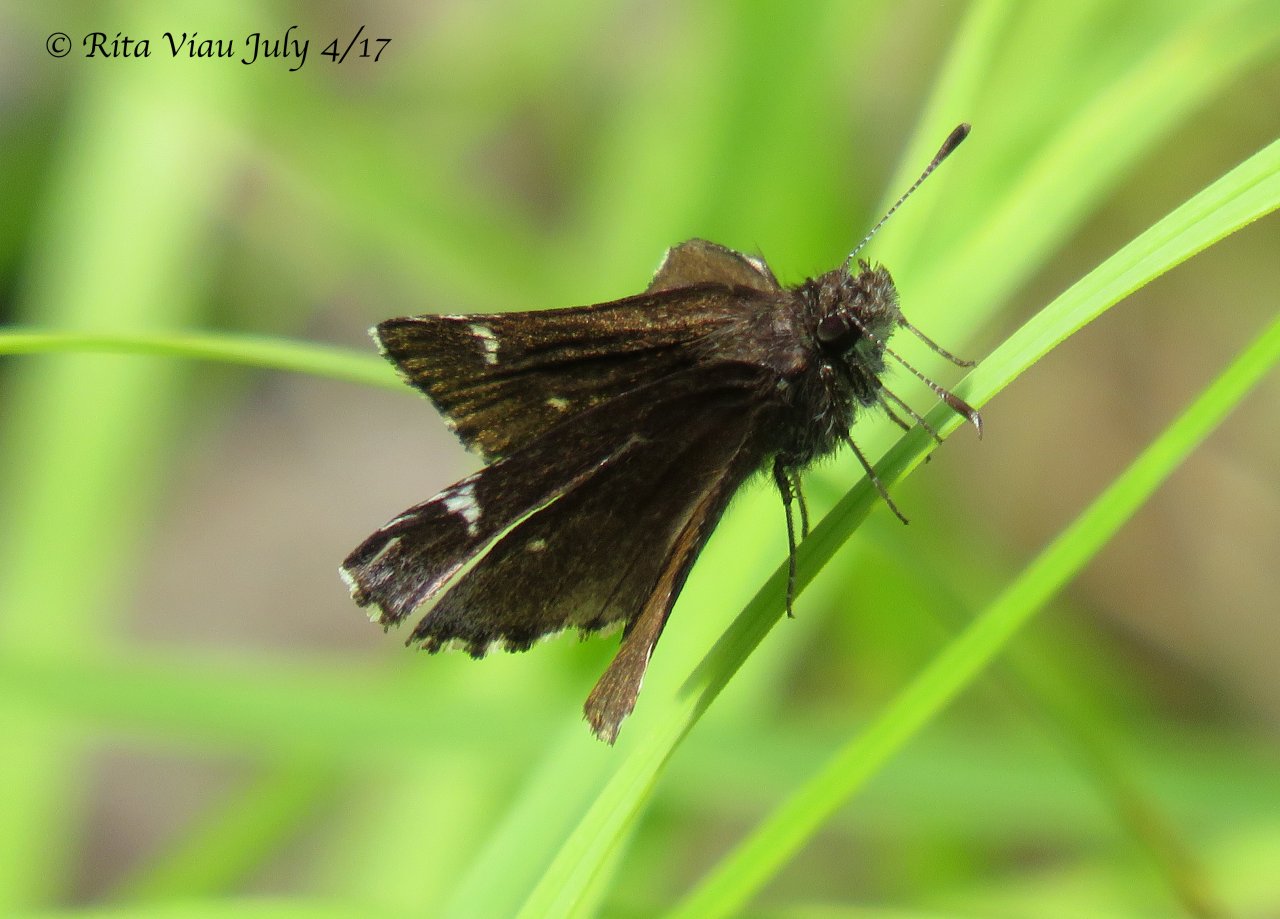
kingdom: Animalia
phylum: Arthropoda
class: Insecta
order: Lepidoptera
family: Hesperiidae
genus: Mastor
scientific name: Mastor vialis
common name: Common Roadside-Skipper
